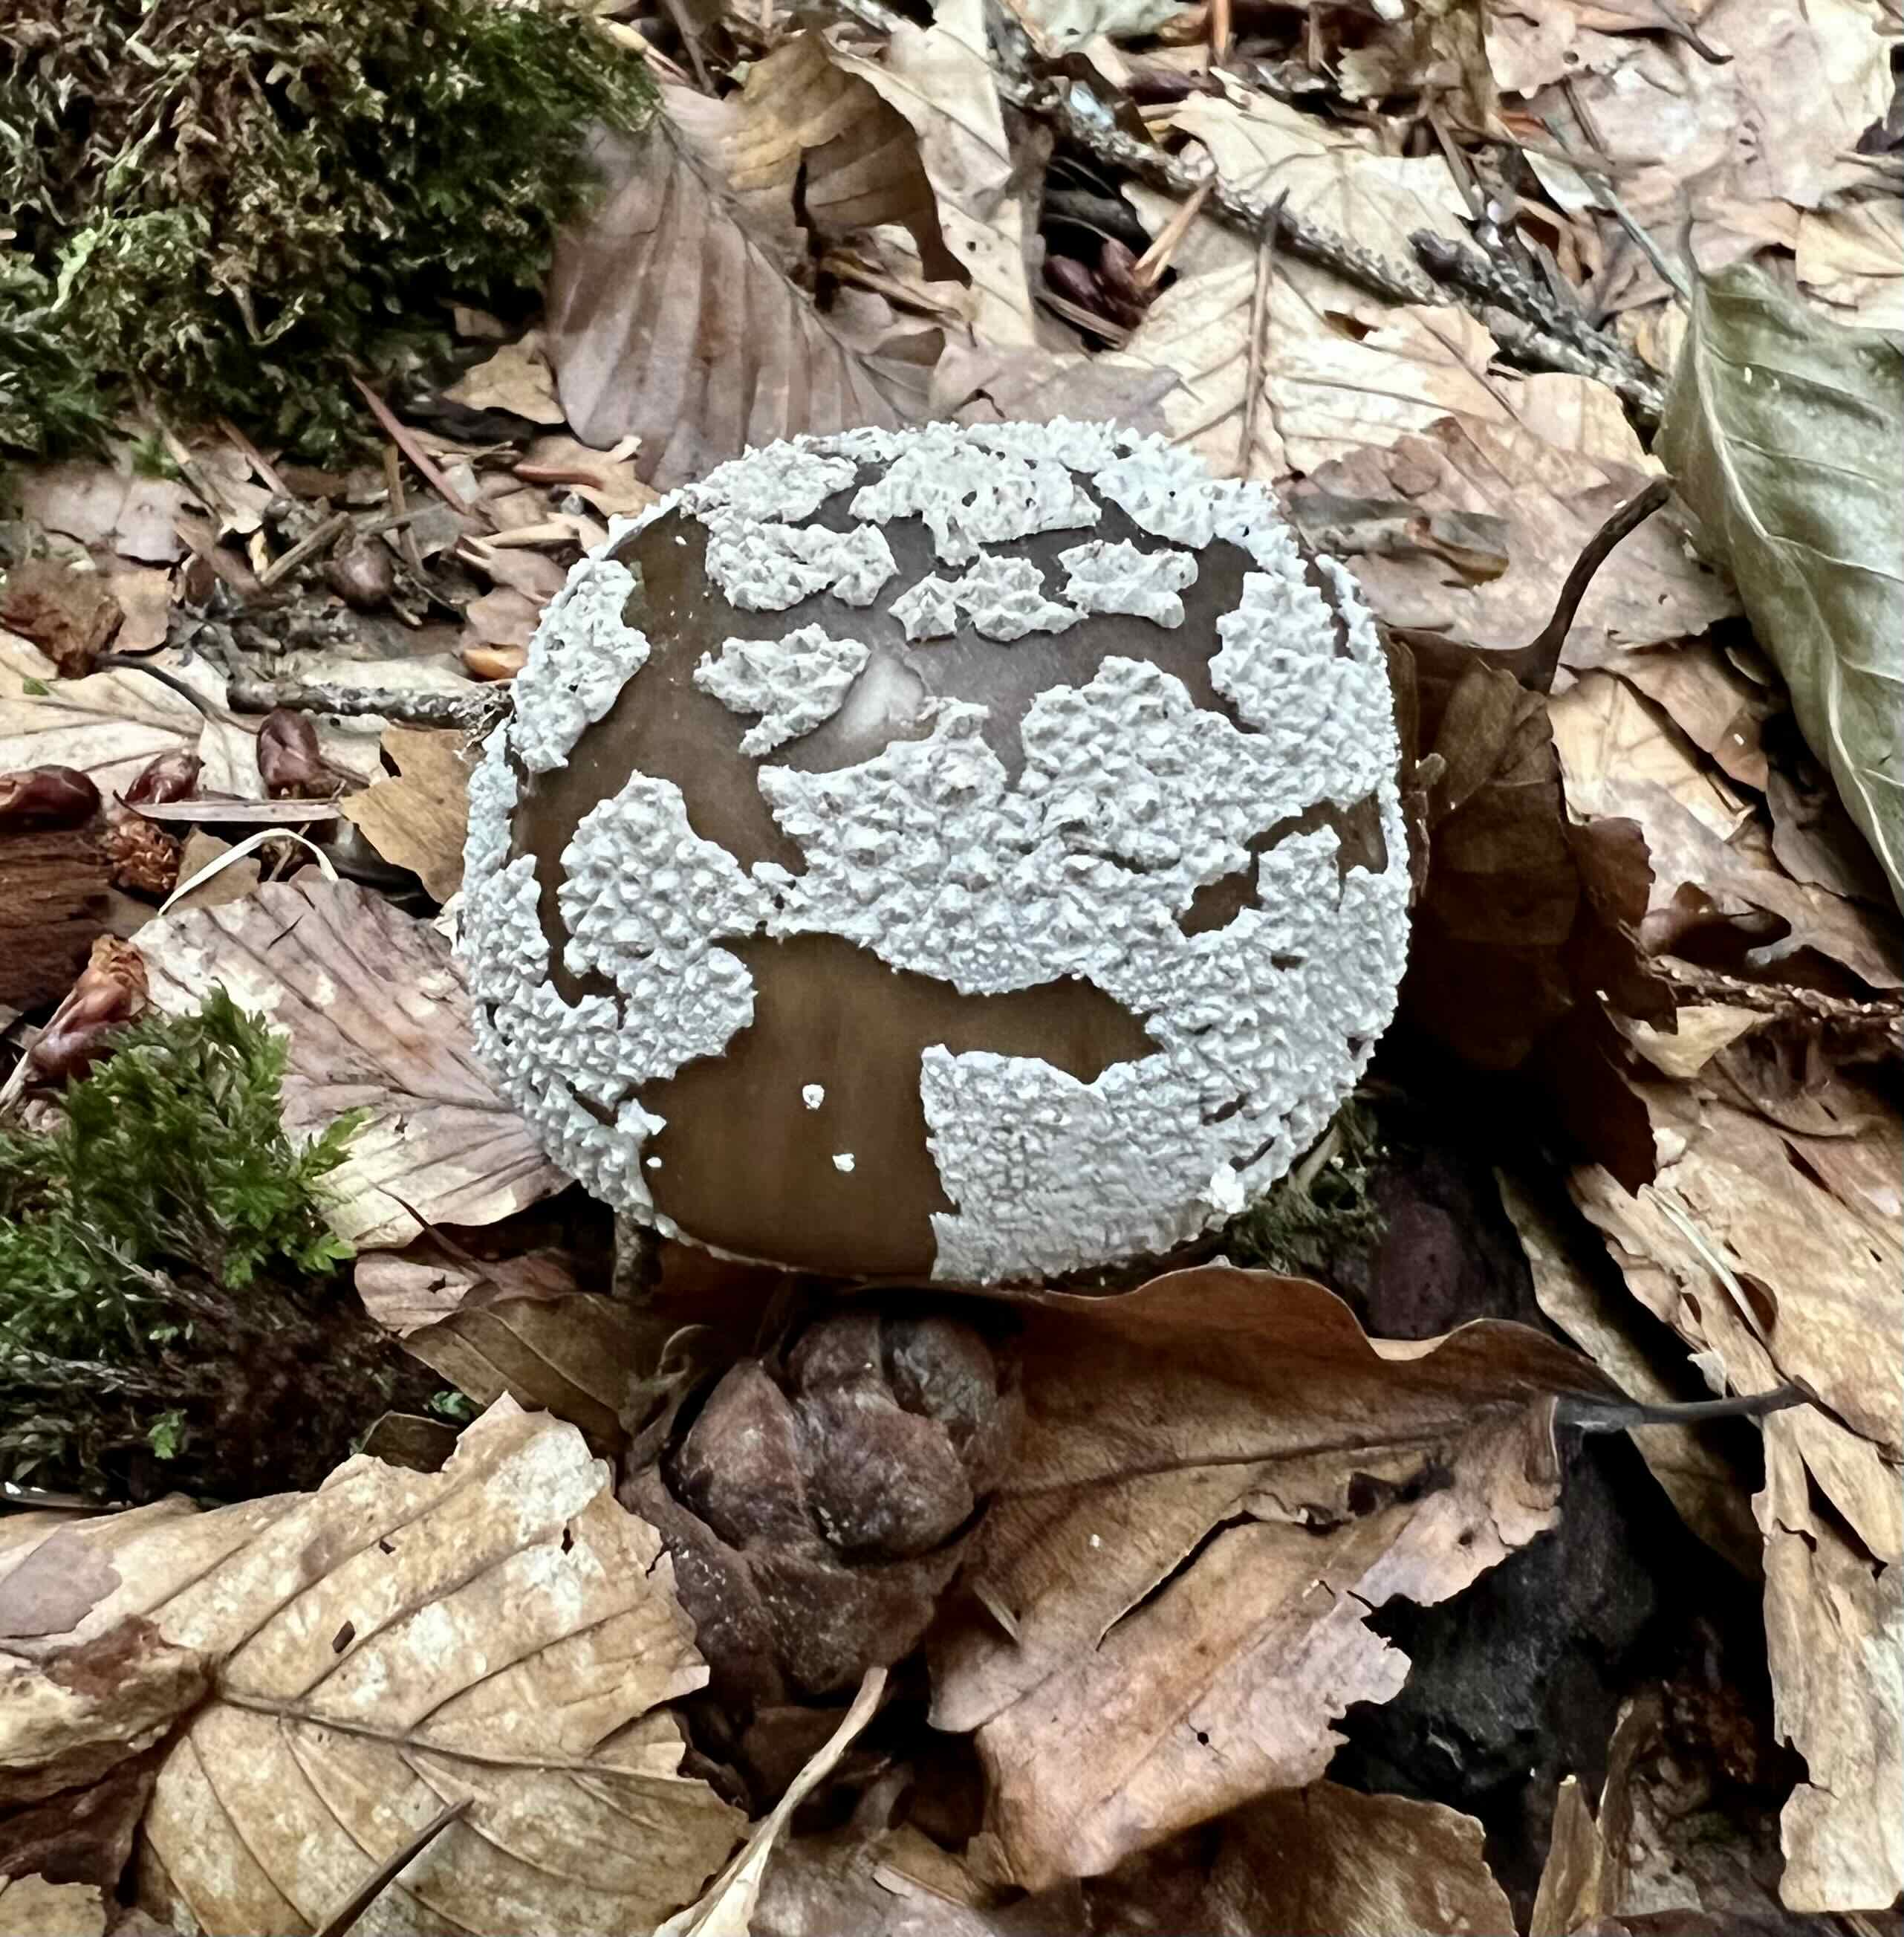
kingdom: Fungi
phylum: Basidiomycota
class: Agaricomycetes
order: Agaricales
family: Amanitaceae
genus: Amanita
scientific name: Amanita
